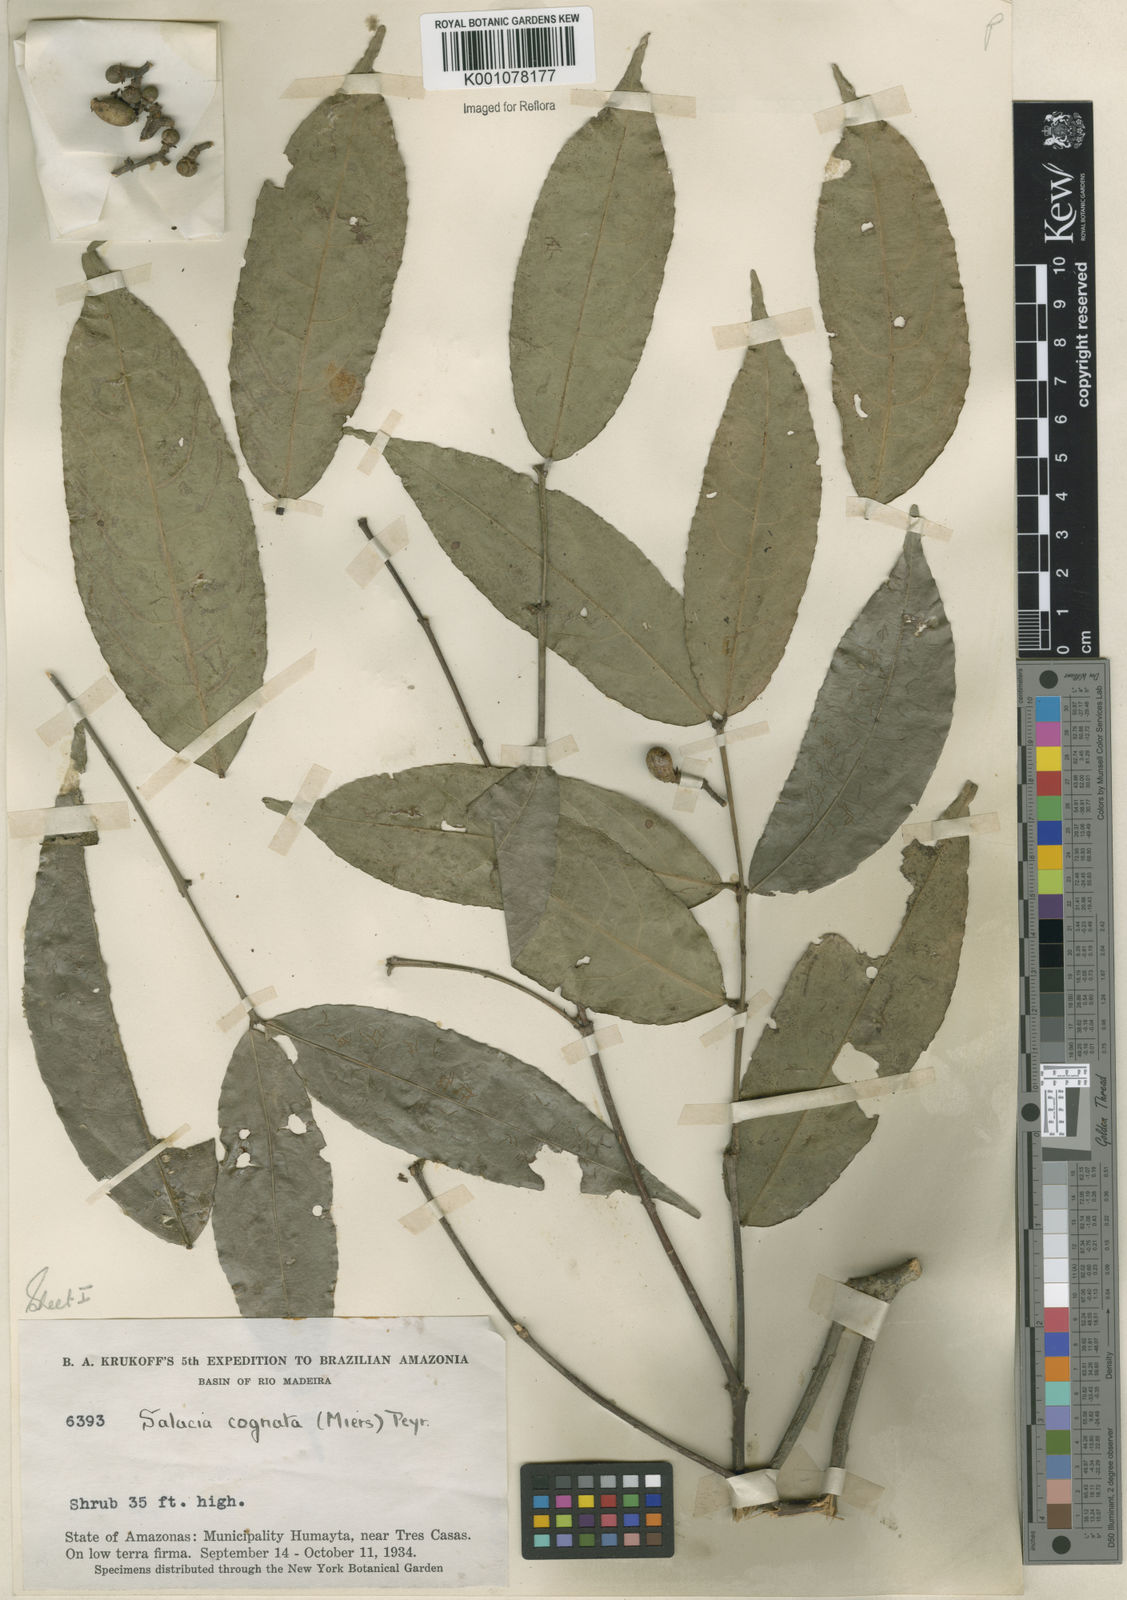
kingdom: Plantae
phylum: Tracheophyta
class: Magnoliopsida
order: Celastrales
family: Celastraceae
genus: Cheiloclinium
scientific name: Cheiloclinium cognatum
